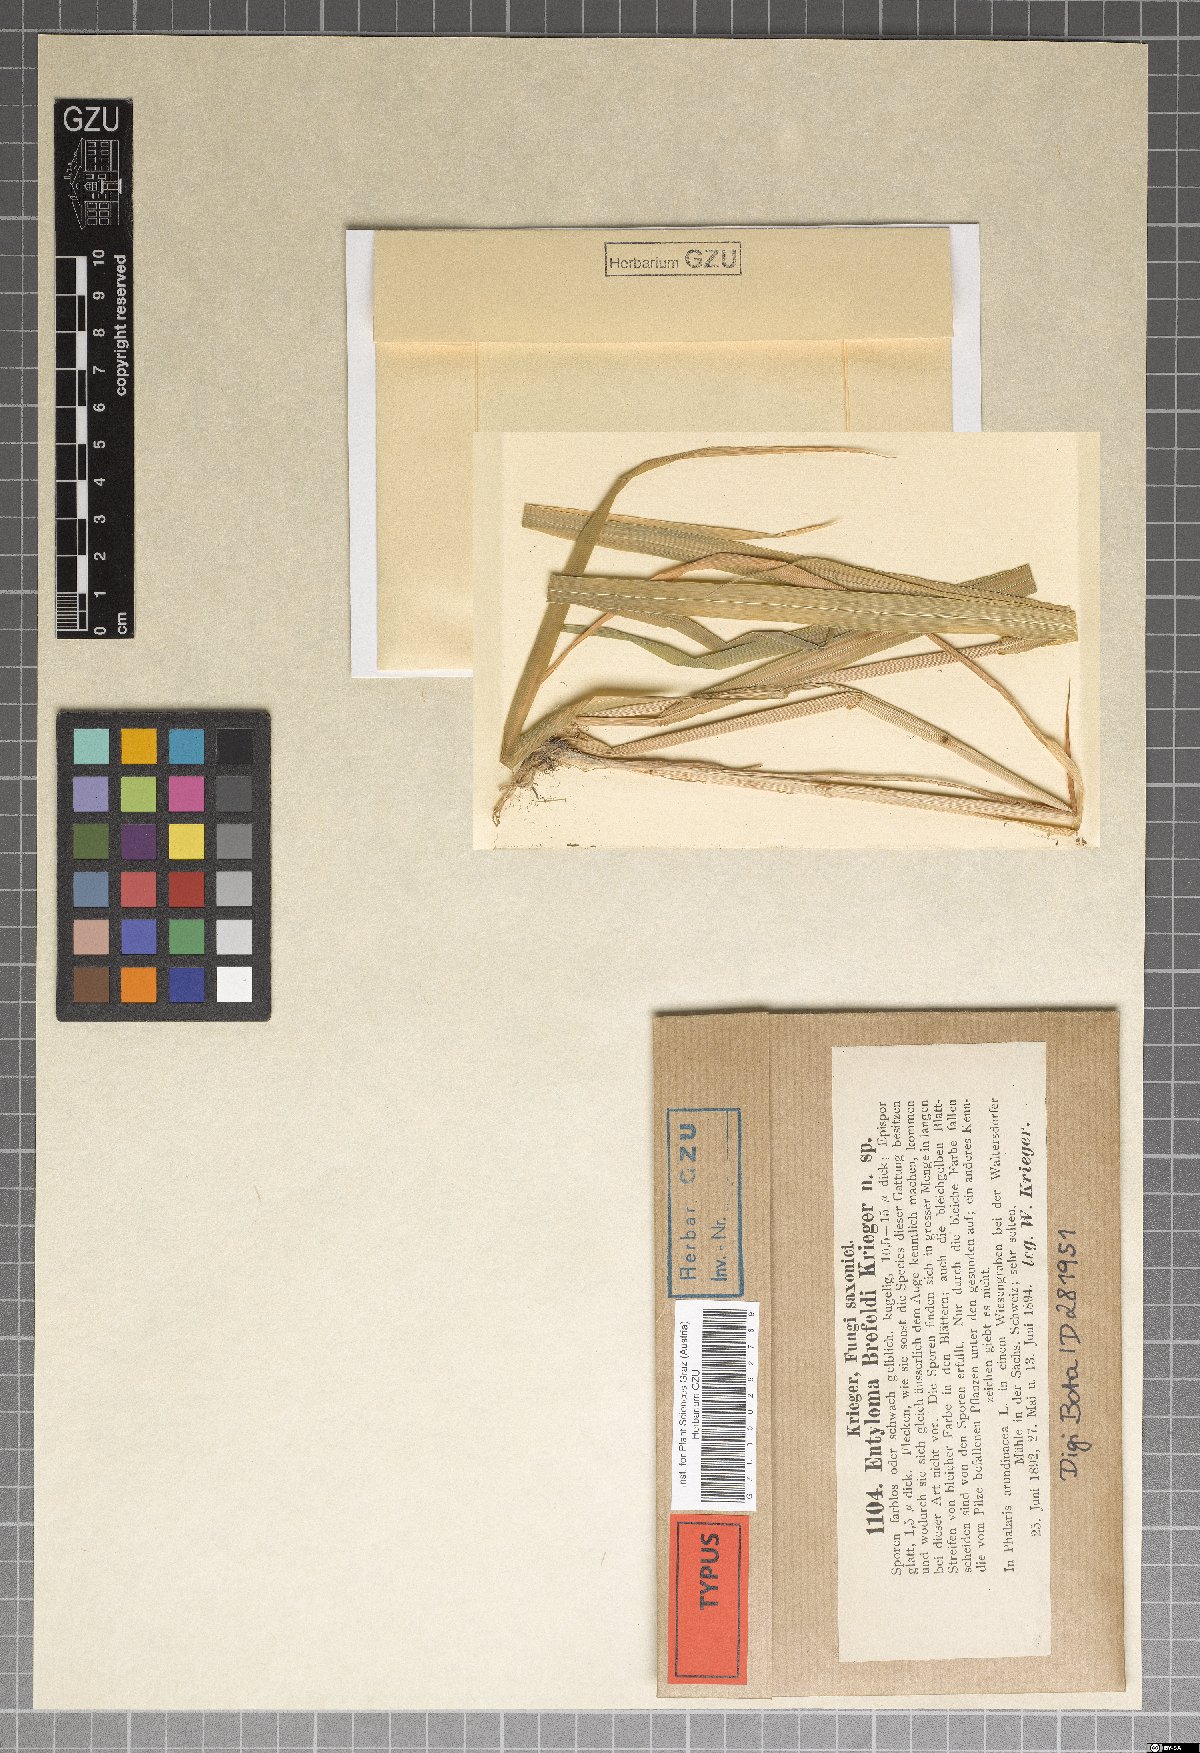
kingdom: Fungi
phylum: Basidiomycota
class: Microbotryomycetes
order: Microbotryales
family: Ustilentylomataceae
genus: Ustilentyloma
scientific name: Ustilentyloma brefeldii
